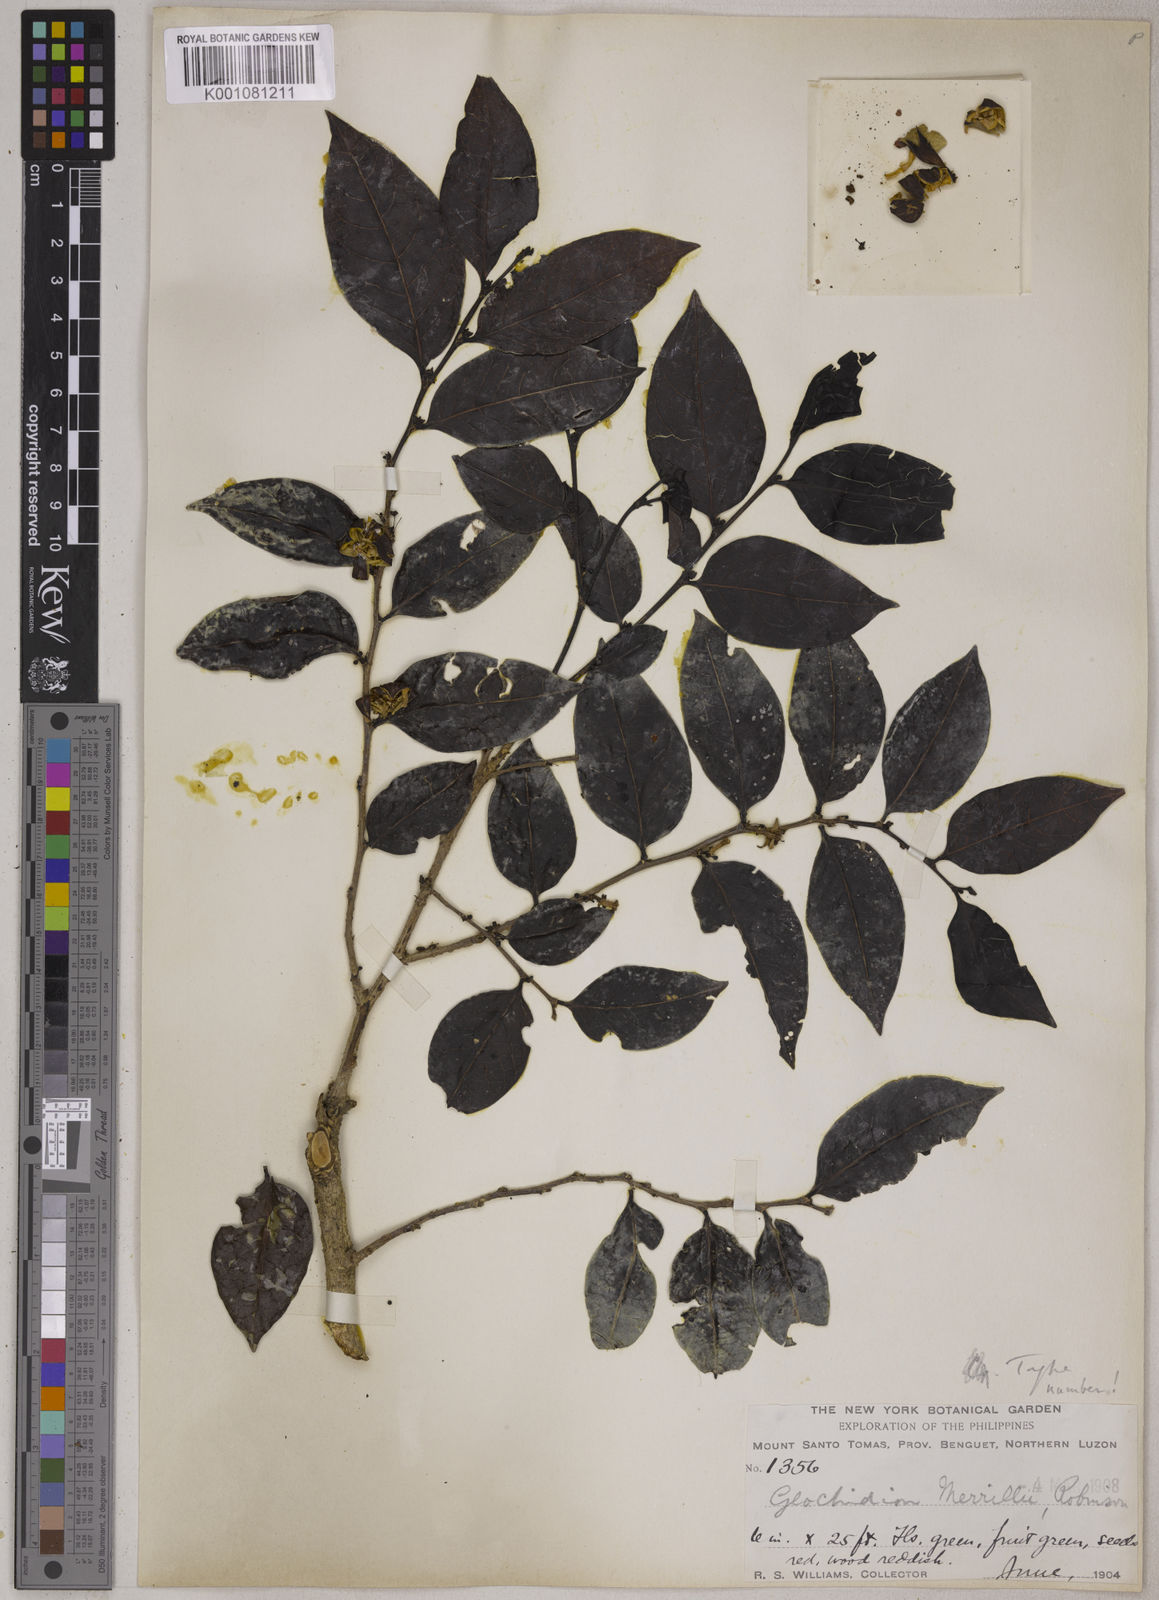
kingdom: Plantae
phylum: Tracheophyta
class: Magnoliopsida
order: Malpighiales
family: Phyllanthaceae
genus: Glochidion
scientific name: Glochidion merrillii
